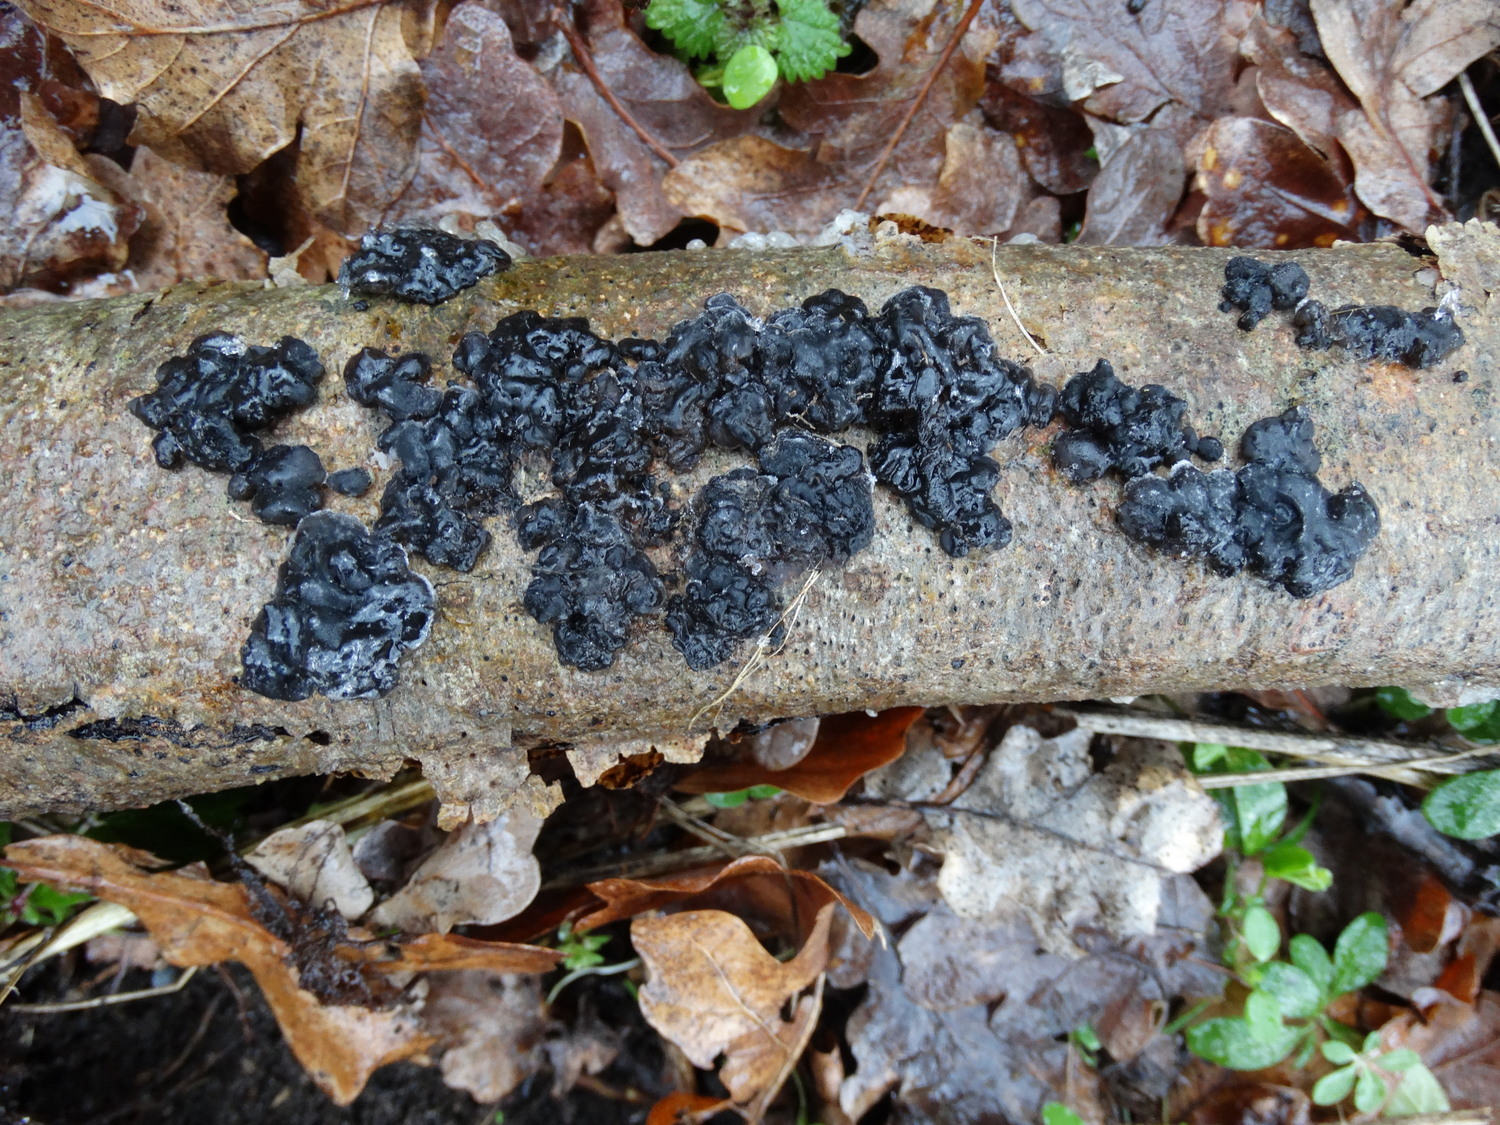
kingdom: Fungi
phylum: Basidiomycota
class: Agaricomycetes
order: Auriculariales
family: Auriculariaceae
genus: Exidia
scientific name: Exidia nigricans
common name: almindelig bævretop
